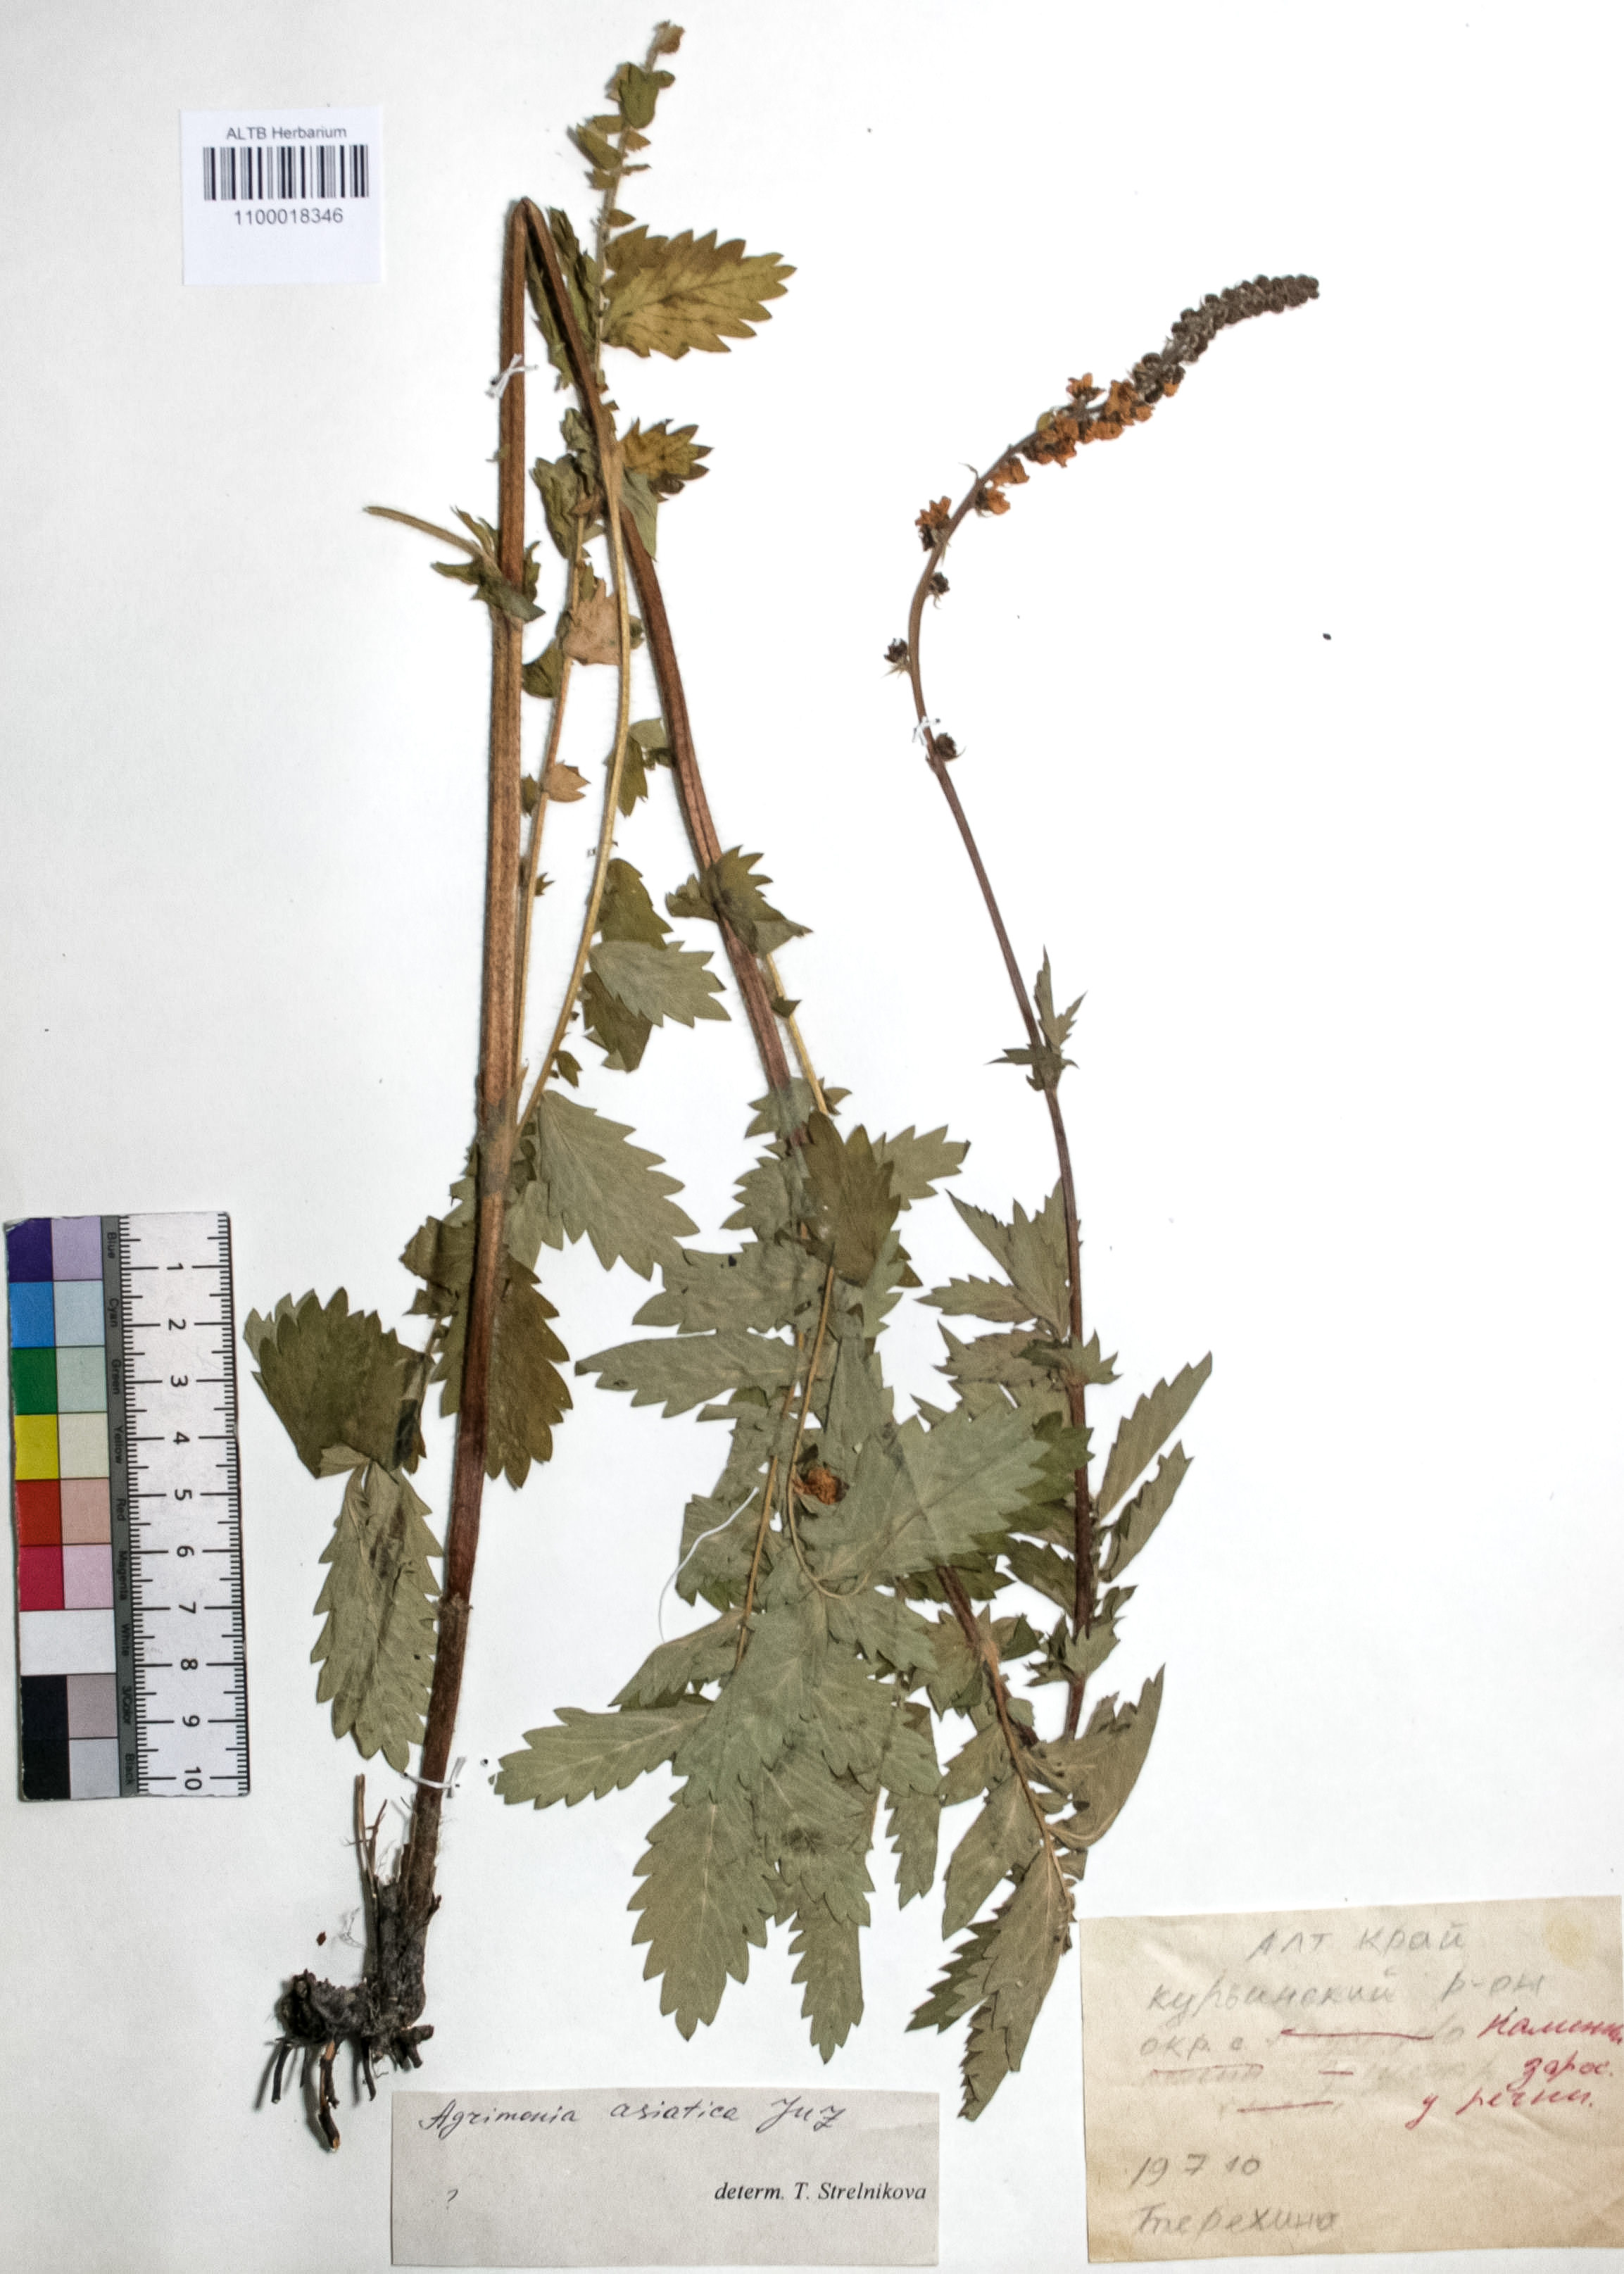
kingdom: Plantae
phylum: Tracheophyta
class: Magnoliopsida
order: Rosales
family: Rosaceae
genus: Agrimonia
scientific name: Agrimonia eupatoria
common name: Agrimony
